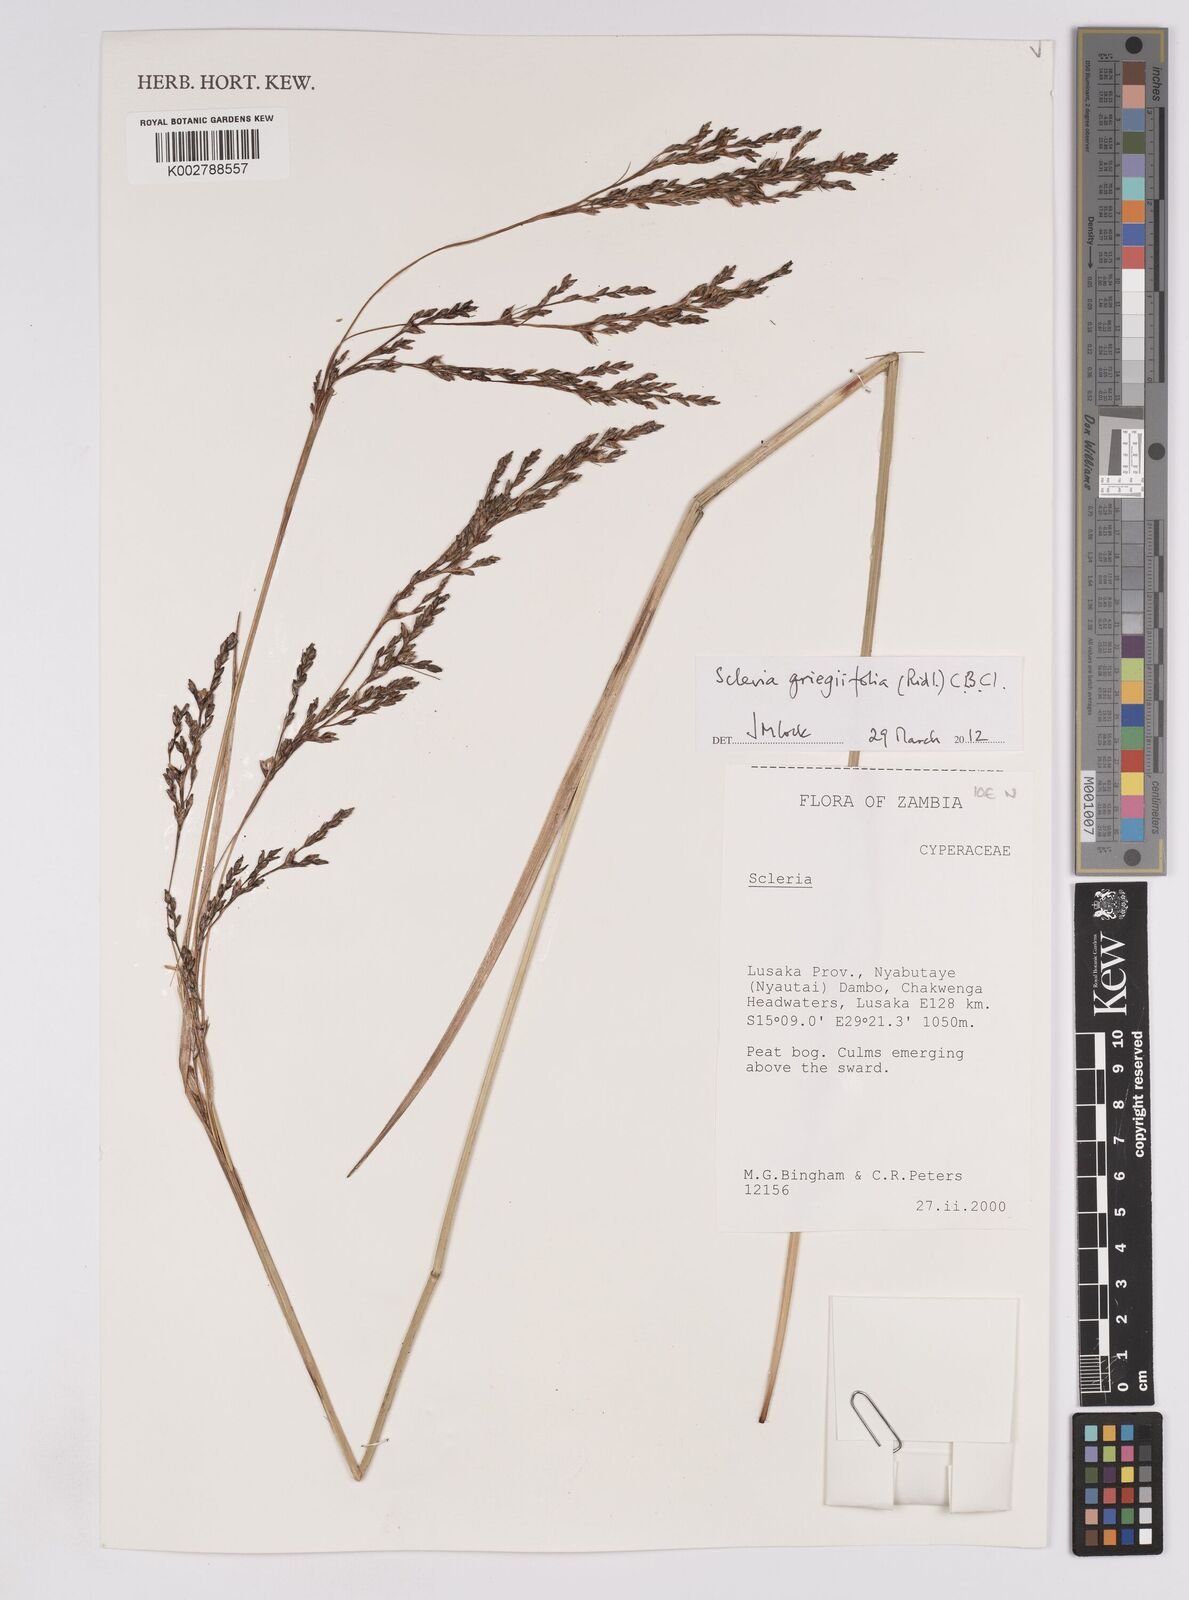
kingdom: Plantae
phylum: Tracheophyta
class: Liliopsida
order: Poales
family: Cyperaceae
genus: Scleria
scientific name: Scleria greigiifolia
